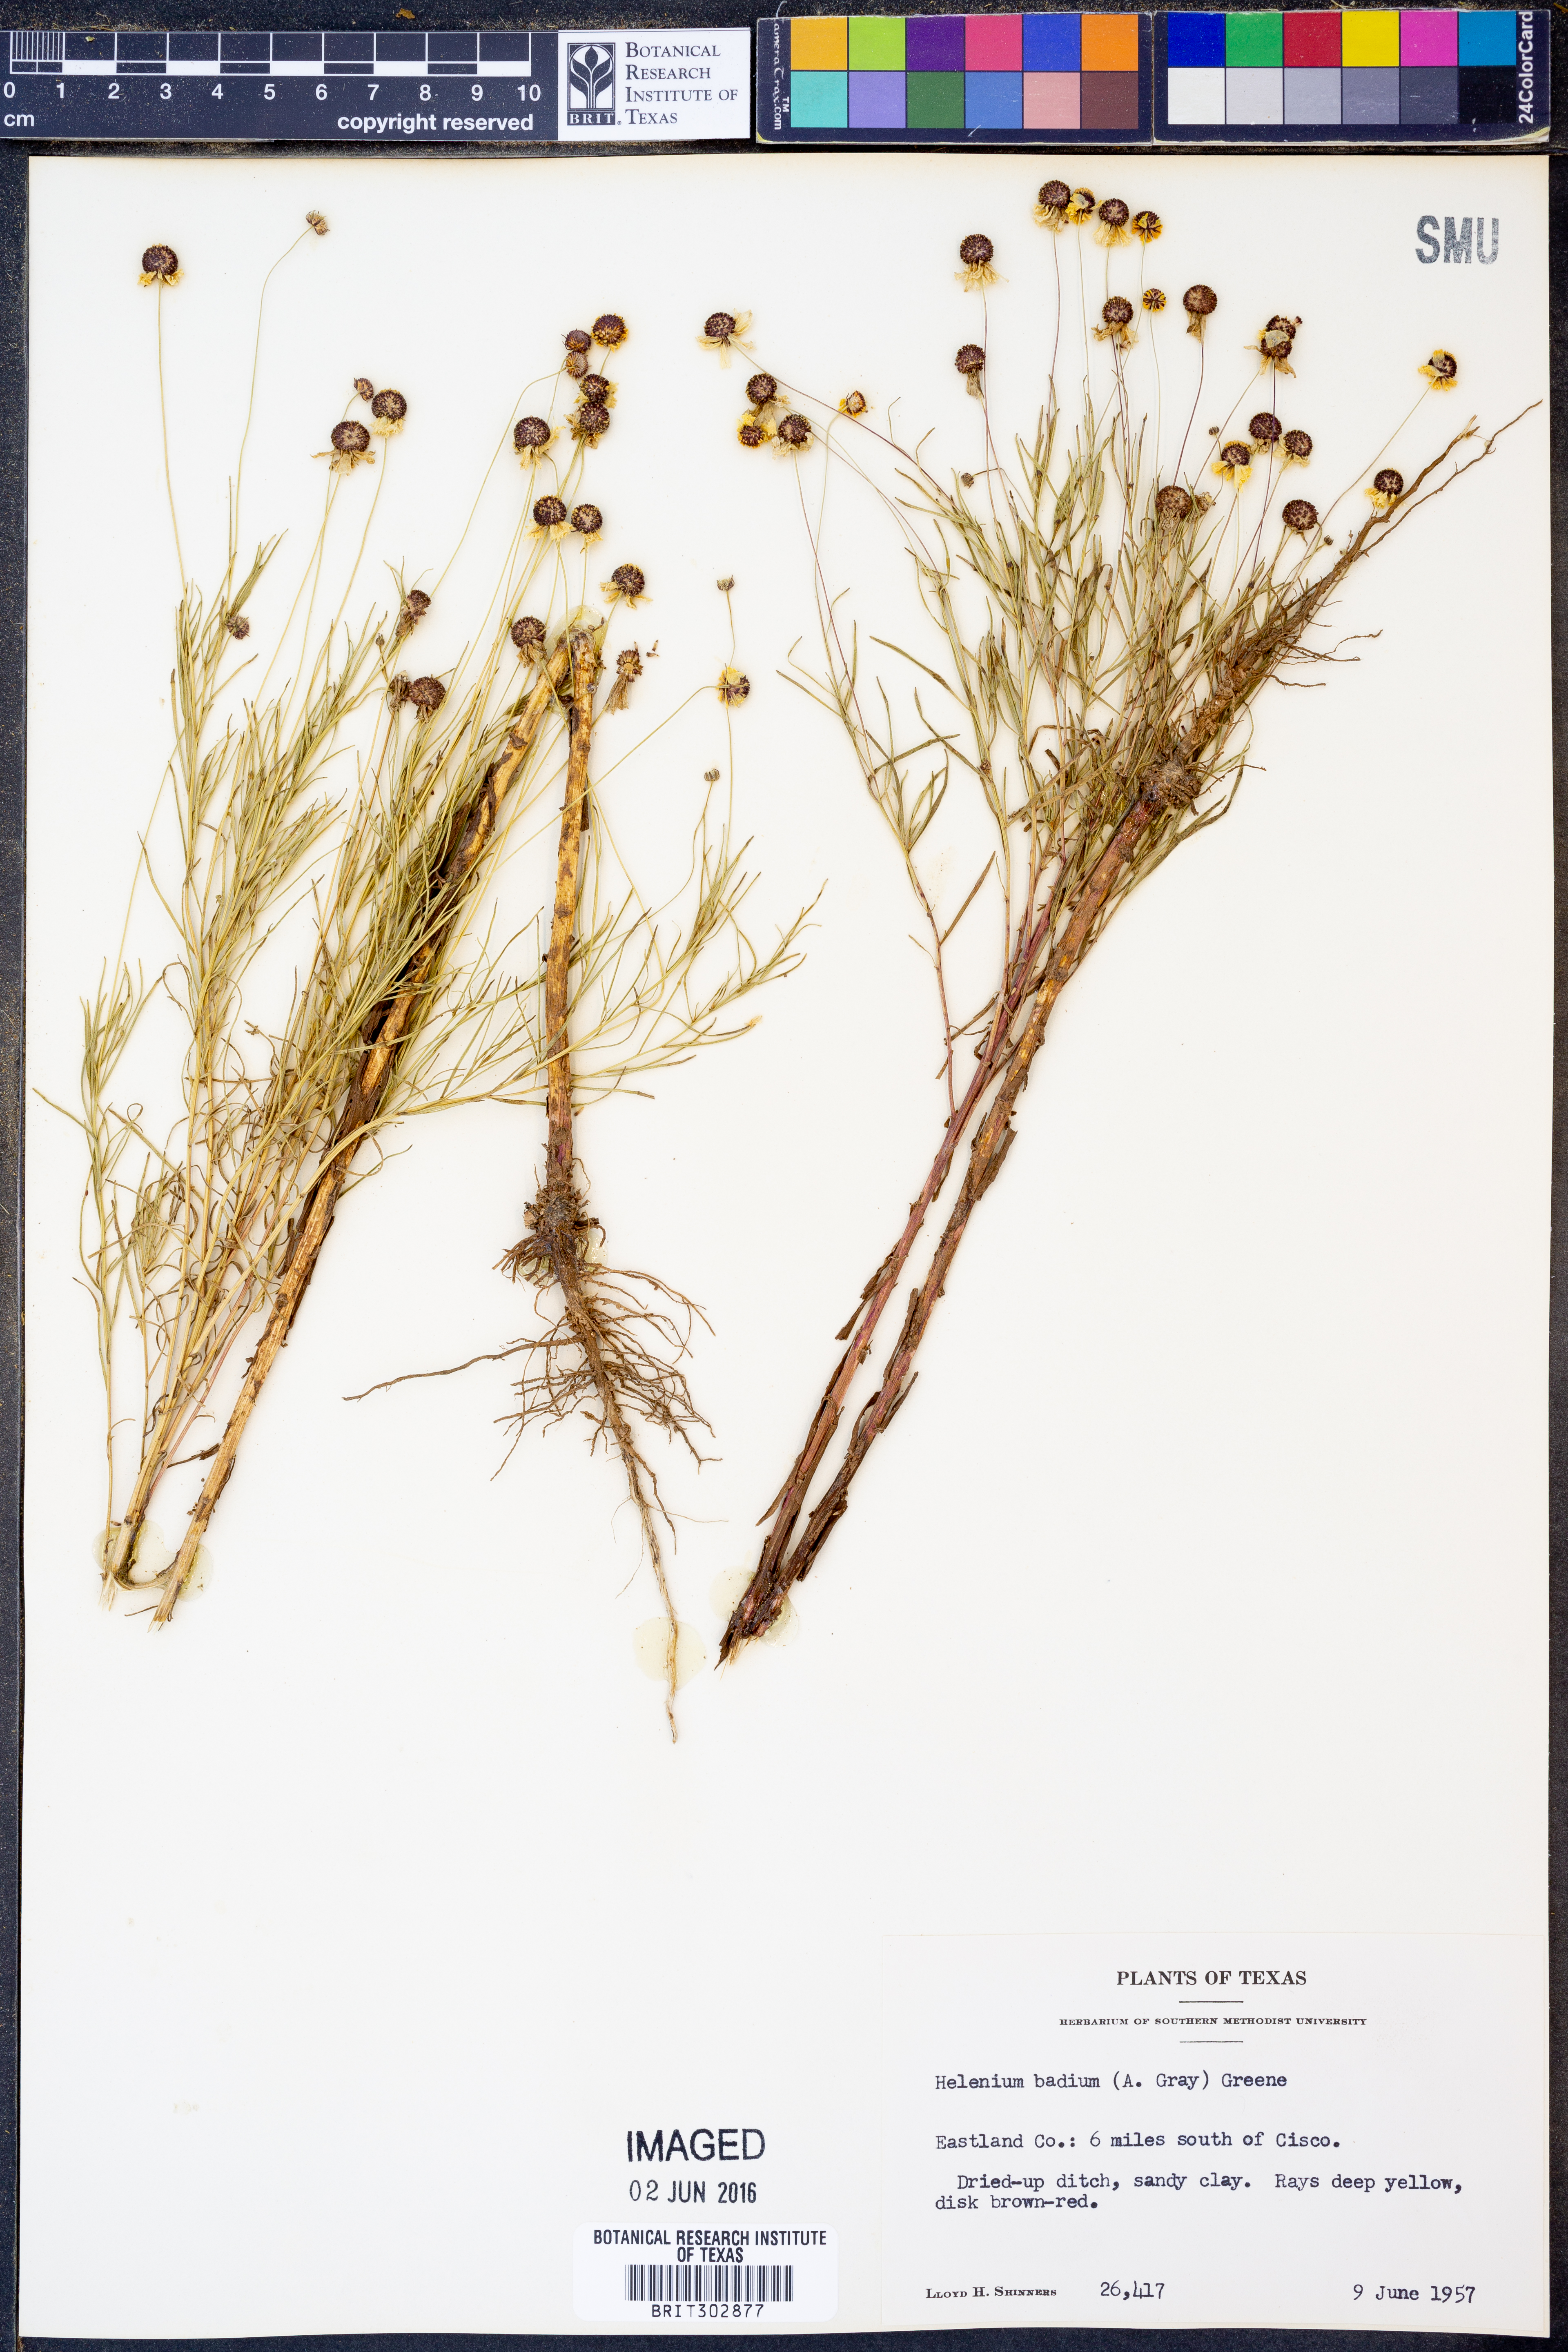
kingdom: Plantae
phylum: Tracheophyta
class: Magnoliopsida
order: Asterales
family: Asteraceae
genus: Helenium
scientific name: Helenium amarum
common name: Bitter sneezeweed
